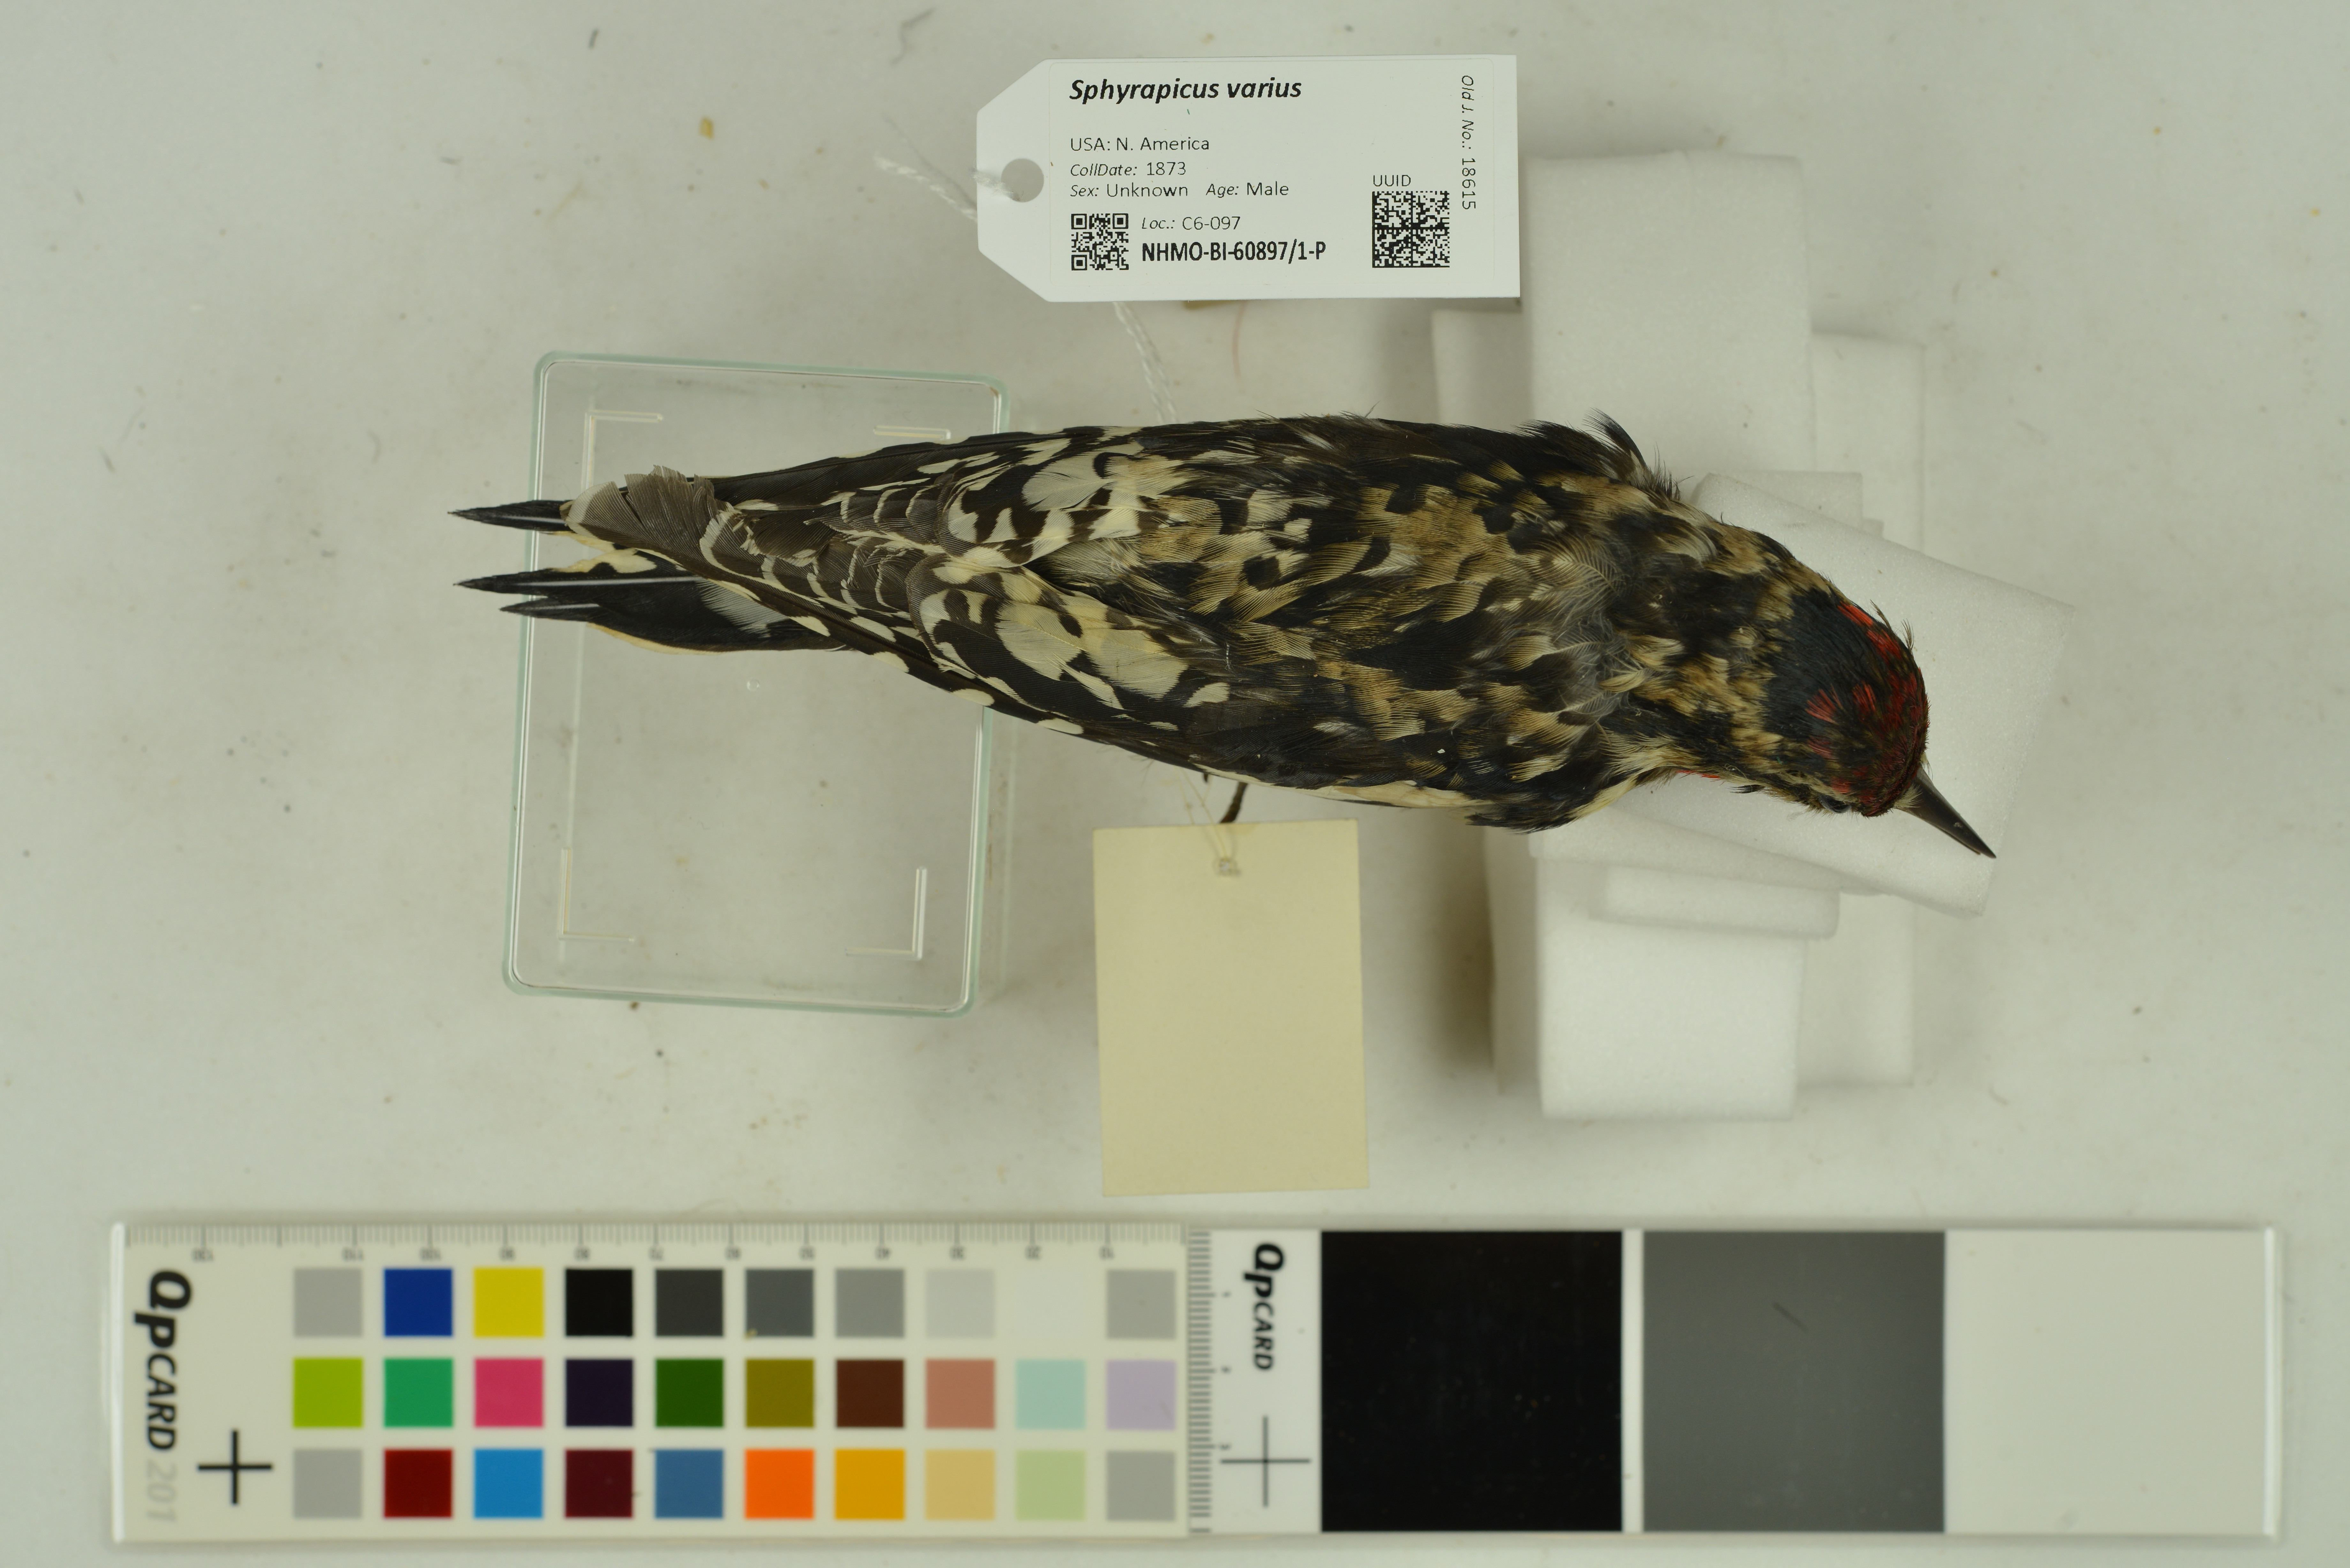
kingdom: Animalia
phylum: Chordata
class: Aves
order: Piciformes
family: Picidae
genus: Sphyrapicus
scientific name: Sphyrapicus varius
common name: Yellow-bellied sapsucker
